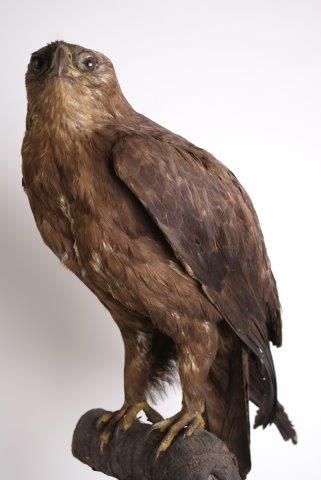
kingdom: Animalia
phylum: Chordata
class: Aves
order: Accipitriformes
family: Accipitridae
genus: Circaetus
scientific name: Circaetus gallicus
